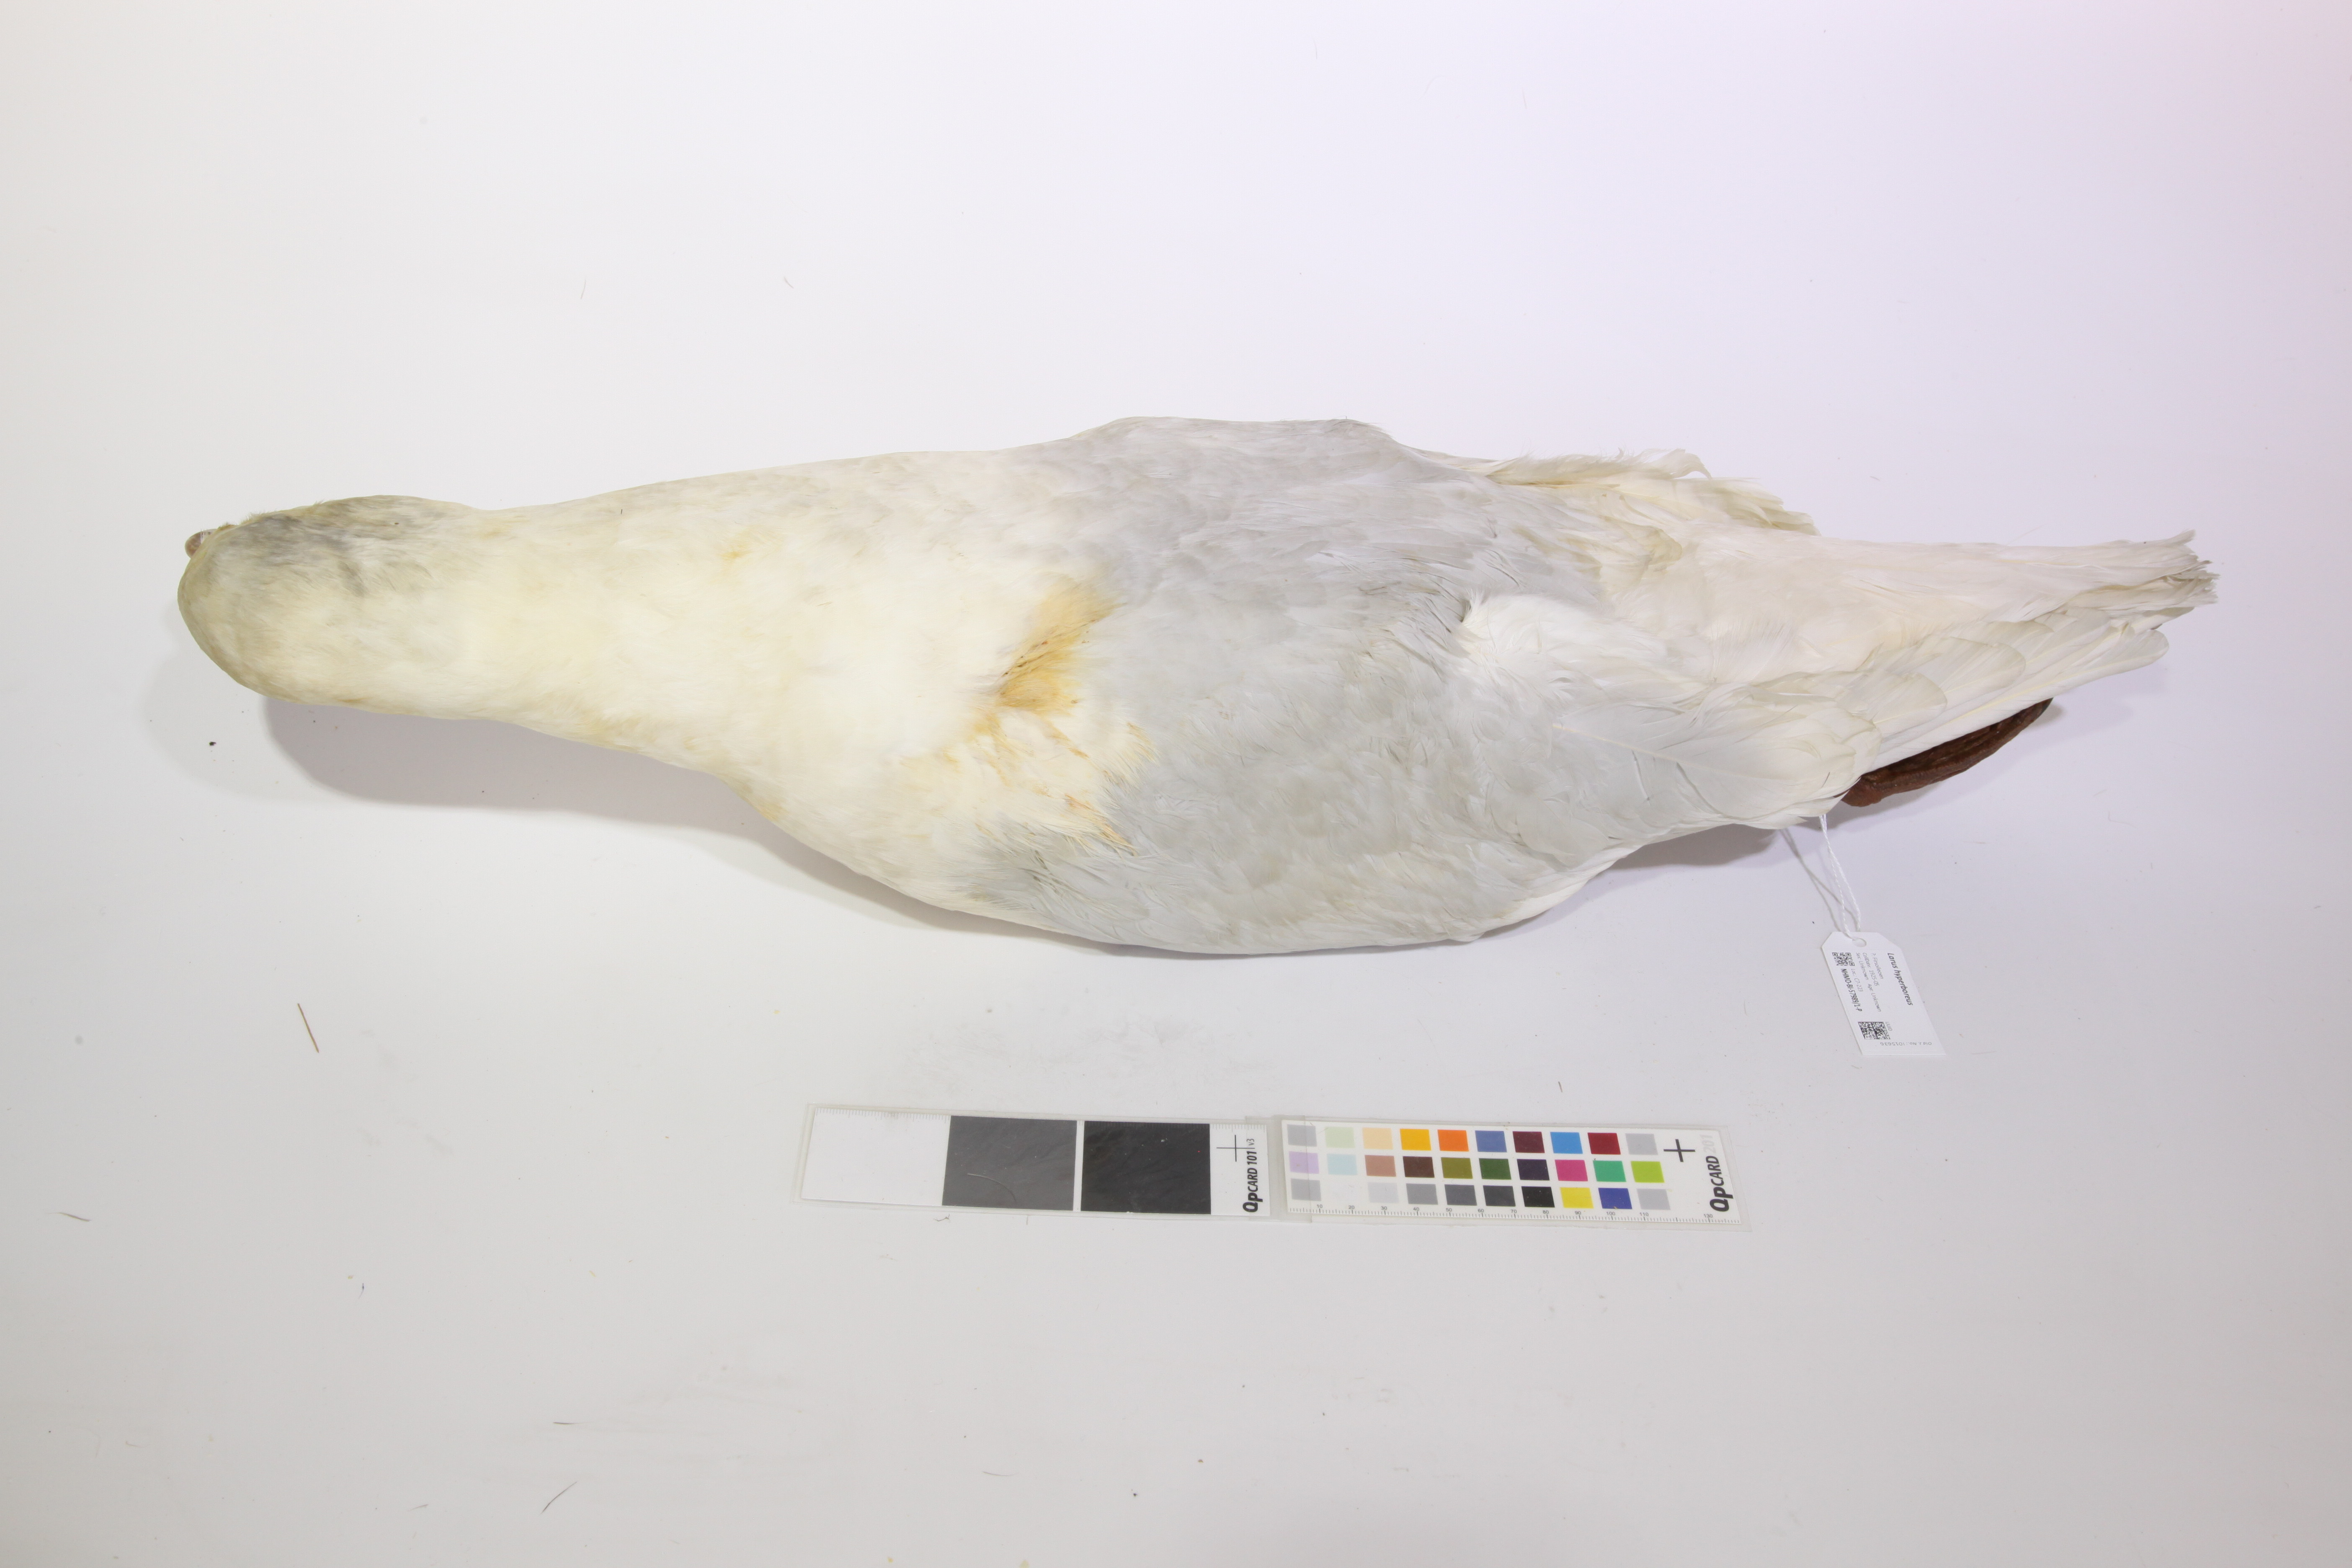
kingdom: Animalia
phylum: Chordata
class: Aves
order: Charadriiformes
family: Laridae
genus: Larus
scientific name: Larus hyperboreus
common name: Glaucous gull
